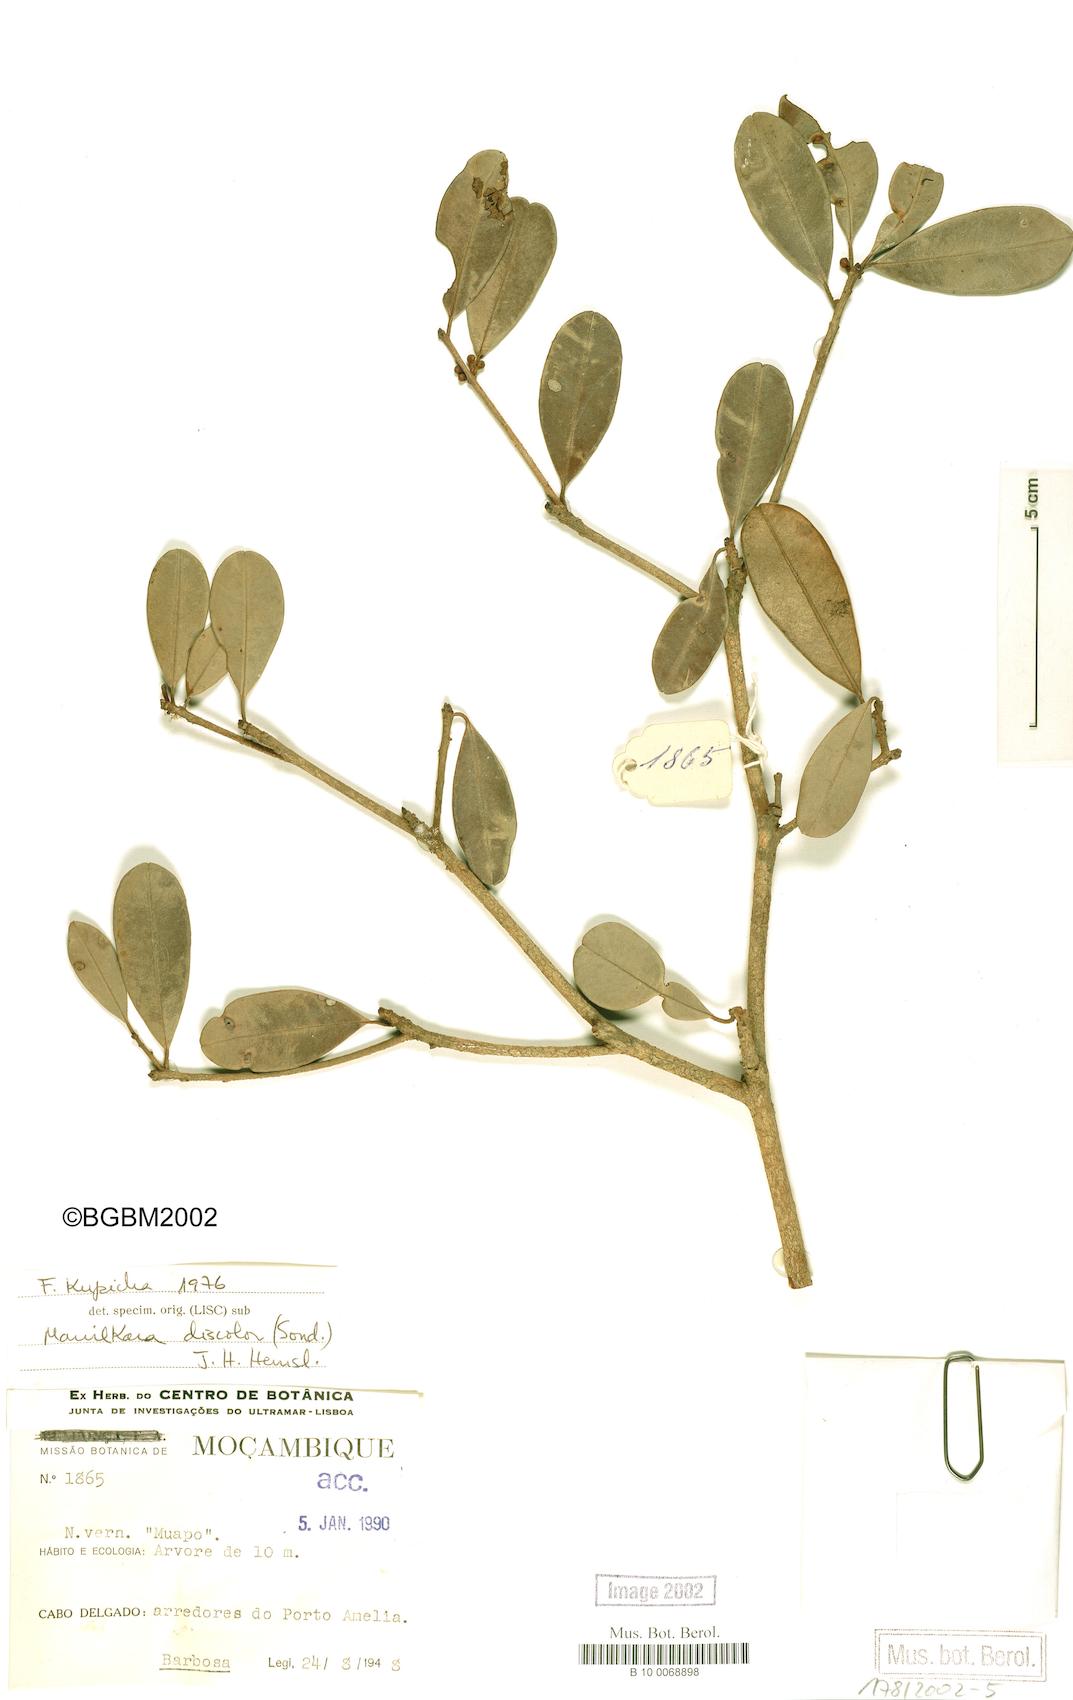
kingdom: Plantae
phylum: Tracheophyta
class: Magnoliopsida
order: Ericales
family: Sapotaceae
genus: Manilkara
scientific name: Manilkara discolor
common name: Forest milkberry
